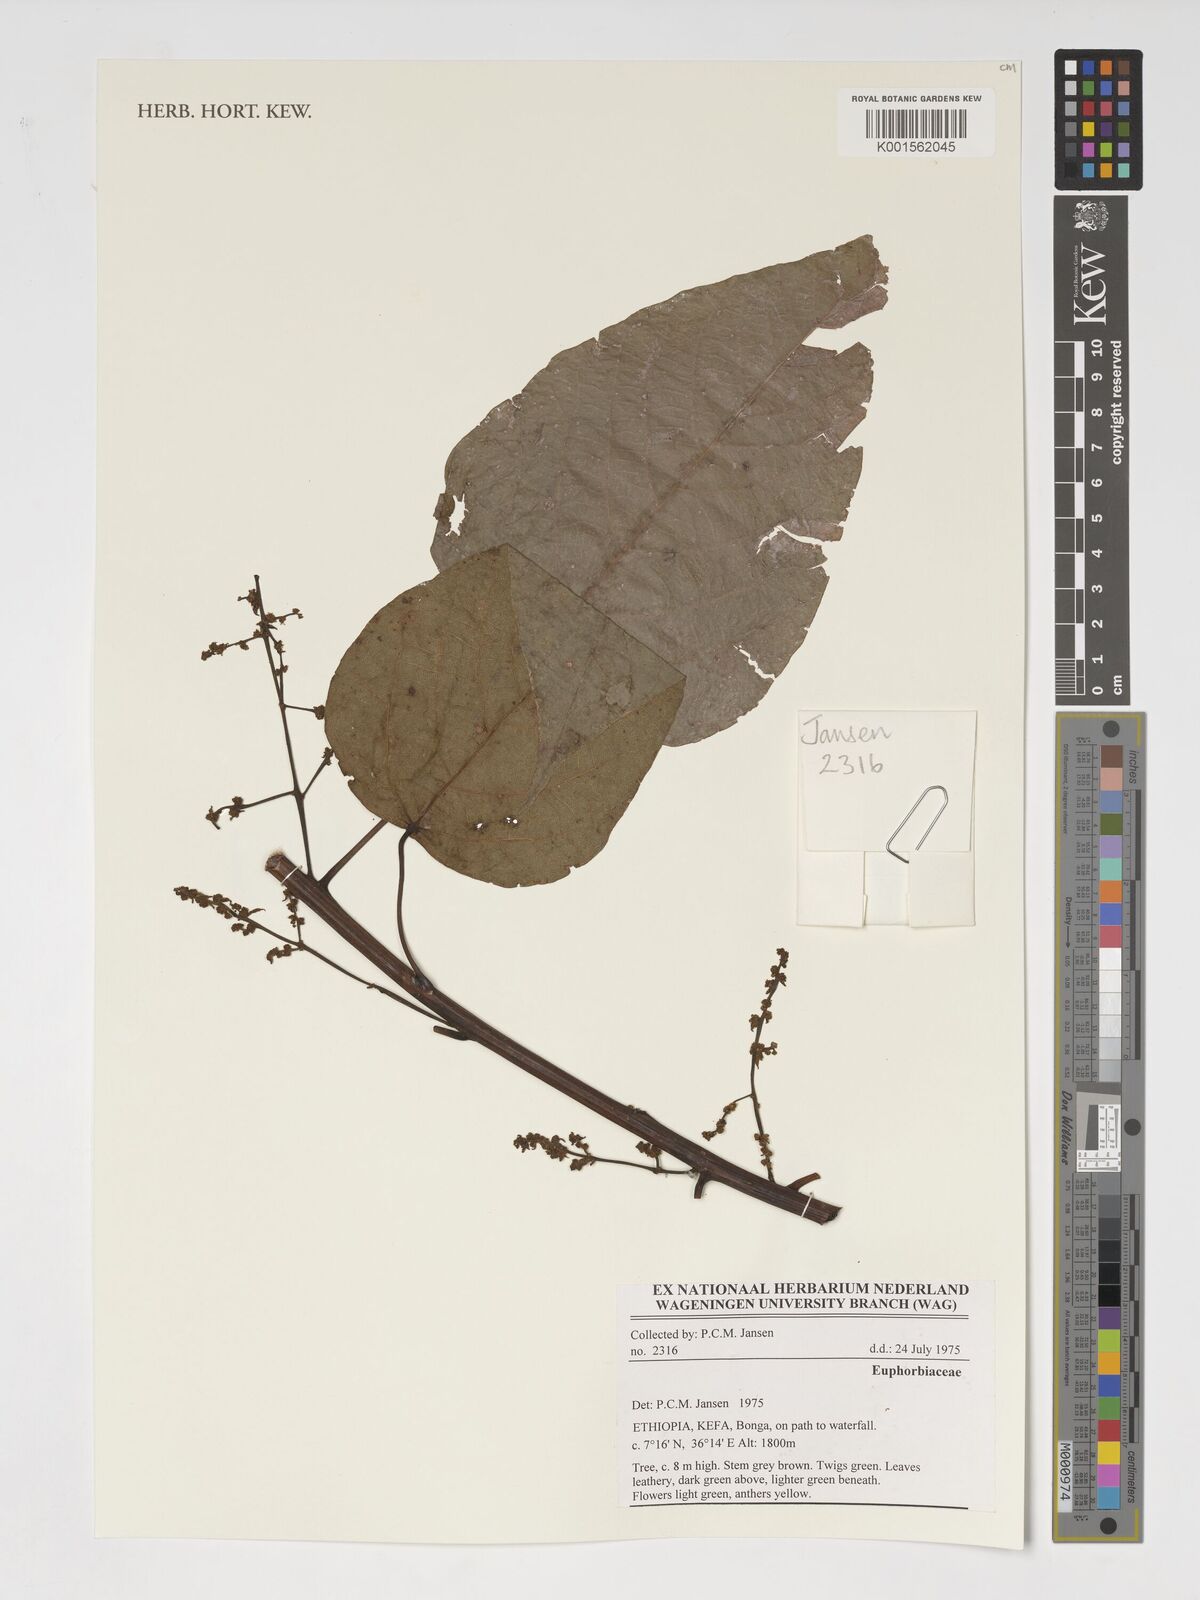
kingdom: Plantae
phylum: Tracheophyta
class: Magnoliopsida
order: Malpighiales
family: Euphorbiaceae
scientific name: Euphorbiaceae
